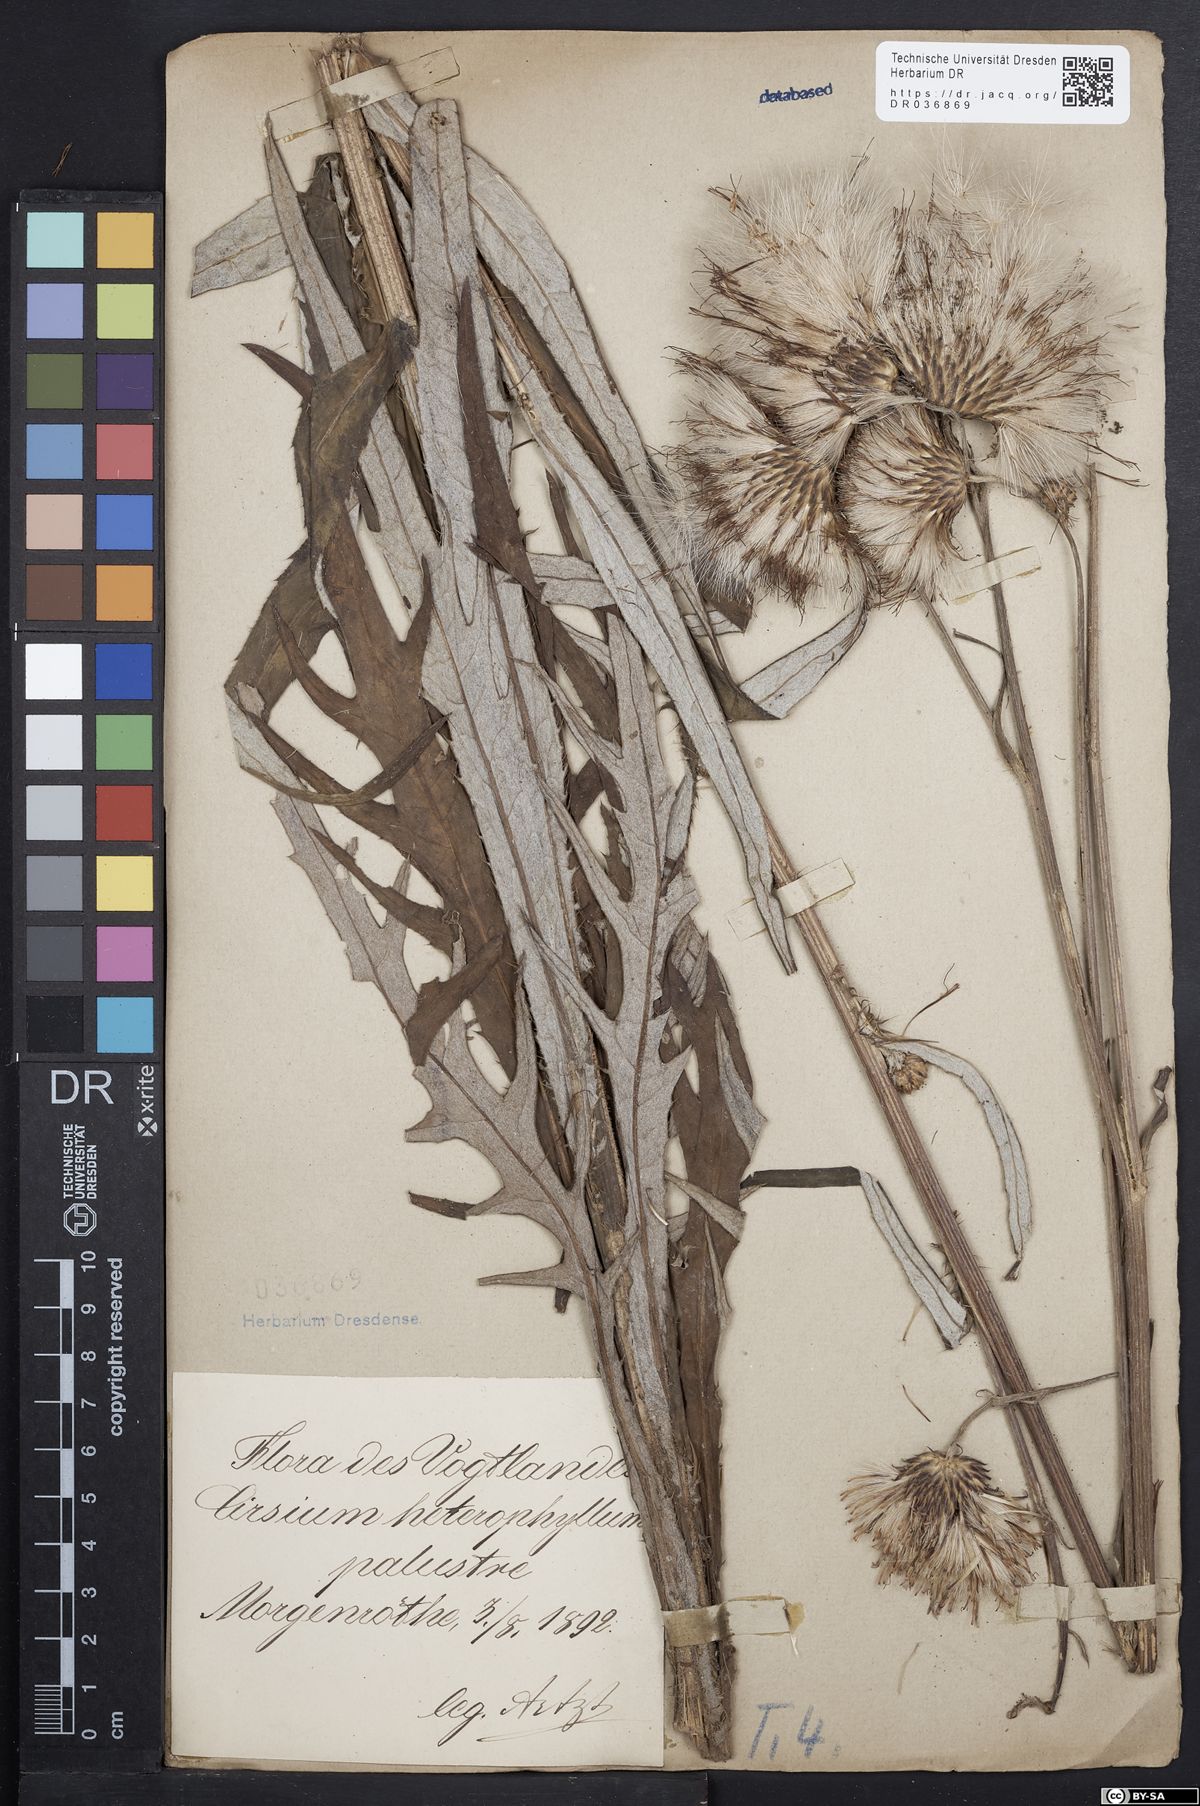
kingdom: Plantae
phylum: Tracheophyta
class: Magnoliopsida
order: Asterales
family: Asteraceae
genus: Cirsium
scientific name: Cirsium helenioides
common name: Melancholy thistle
